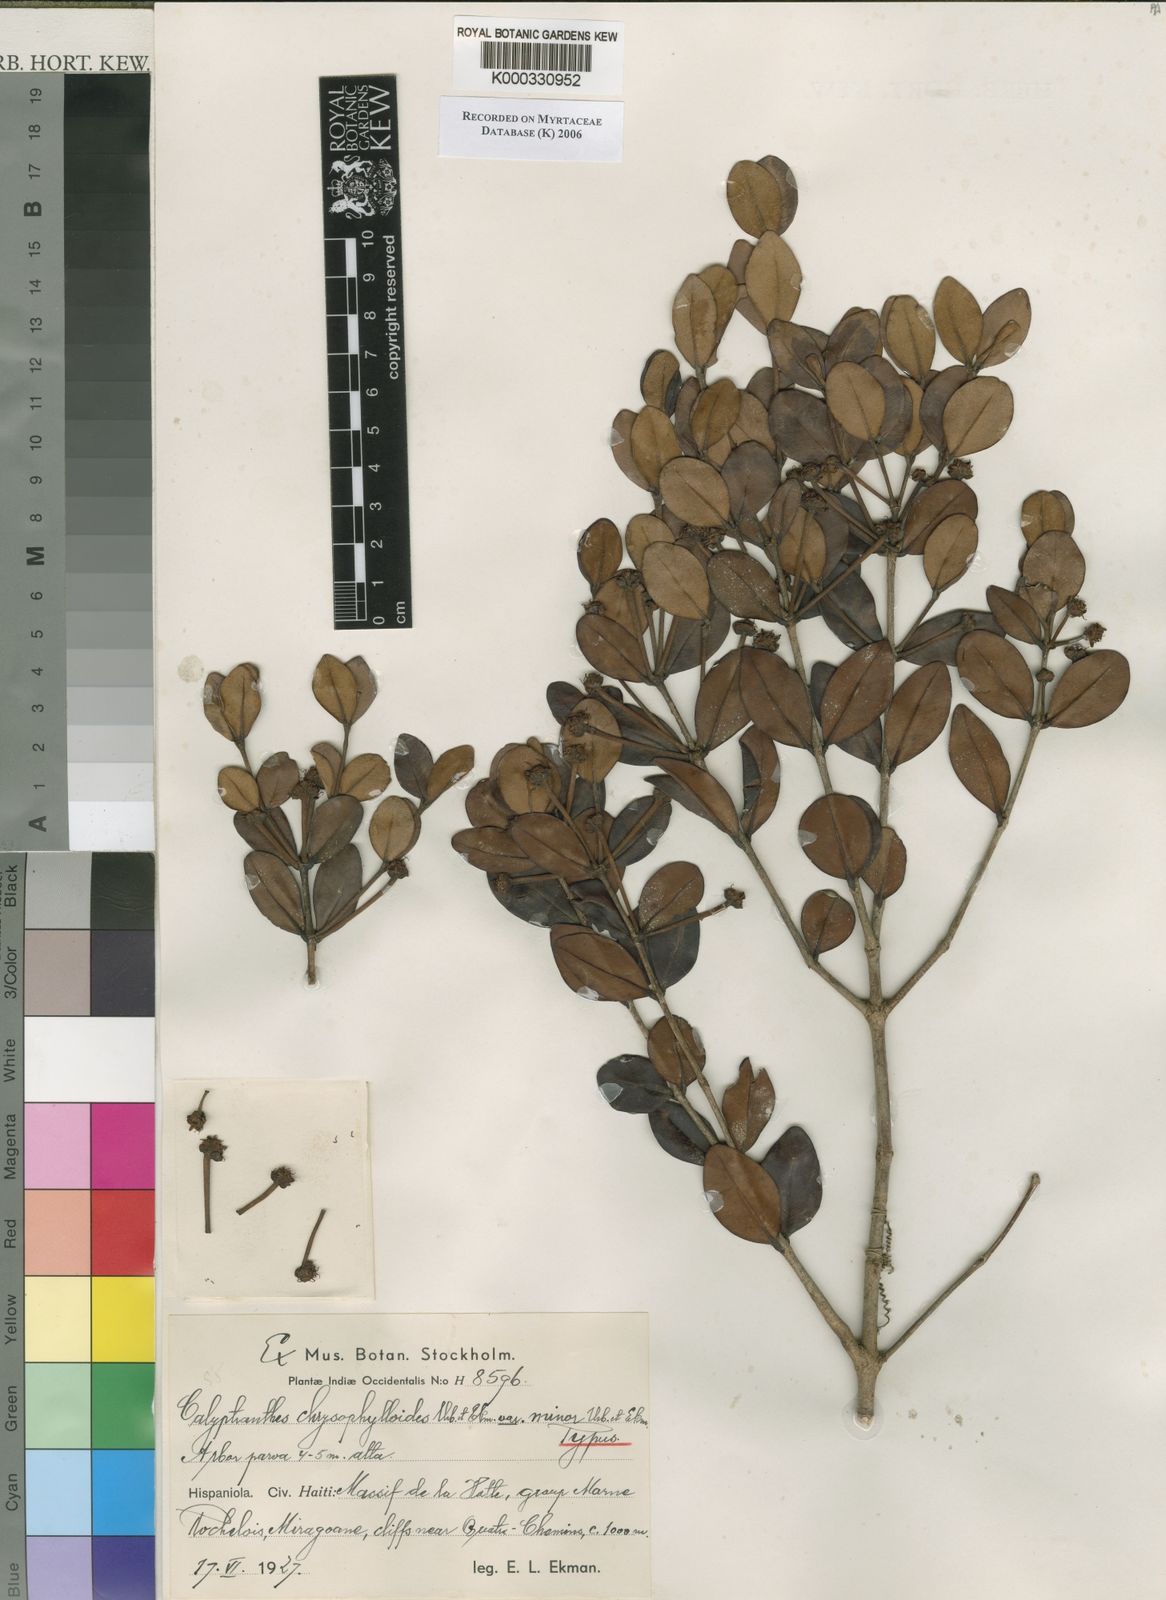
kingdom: Plantae
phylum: Tracheophyta
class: Magnoliopsida
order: Myrtales
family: Myrtaceae
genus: Myrcia
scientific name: Myrcia chrysophylloides
